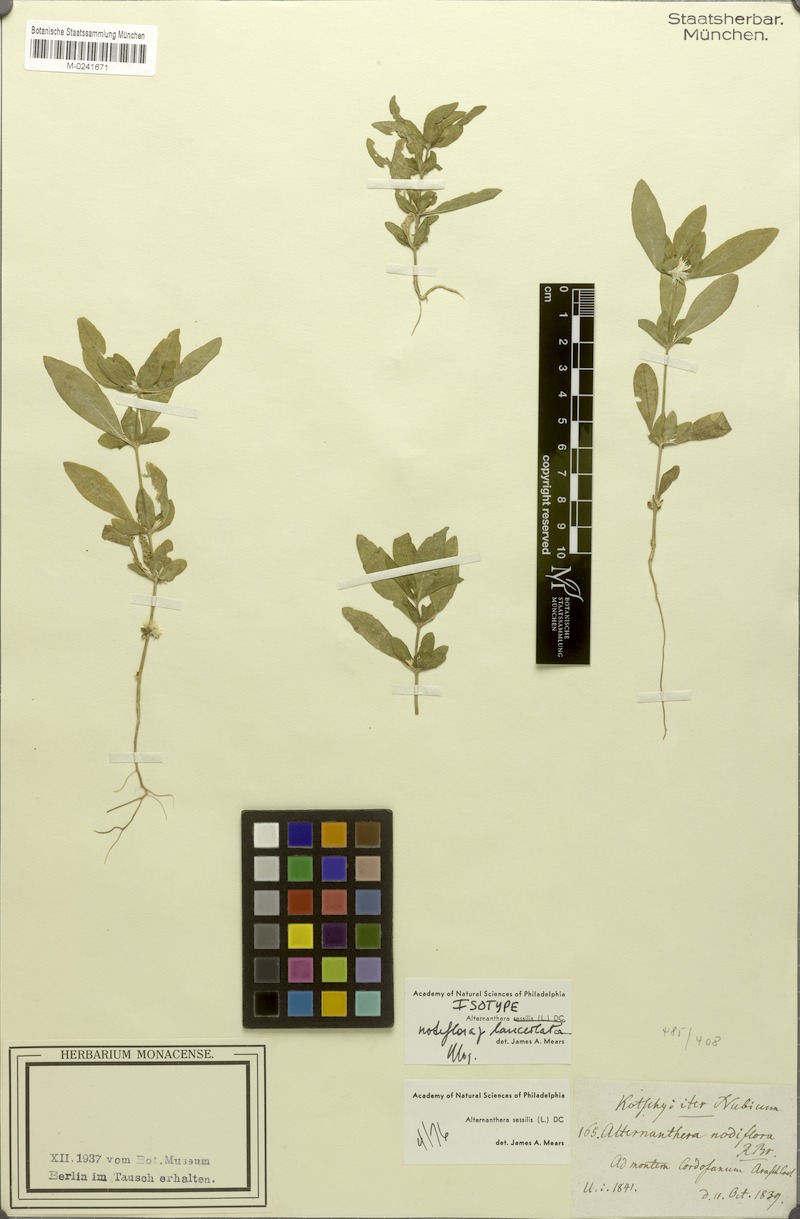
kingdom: Plantae
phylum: Tracheophyta
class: Magnoliopsida
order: Caryophyllales
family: Amaranthaceae
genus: Alternanthera
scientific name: Alternanthera sessilis
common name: Sessile joyweed
